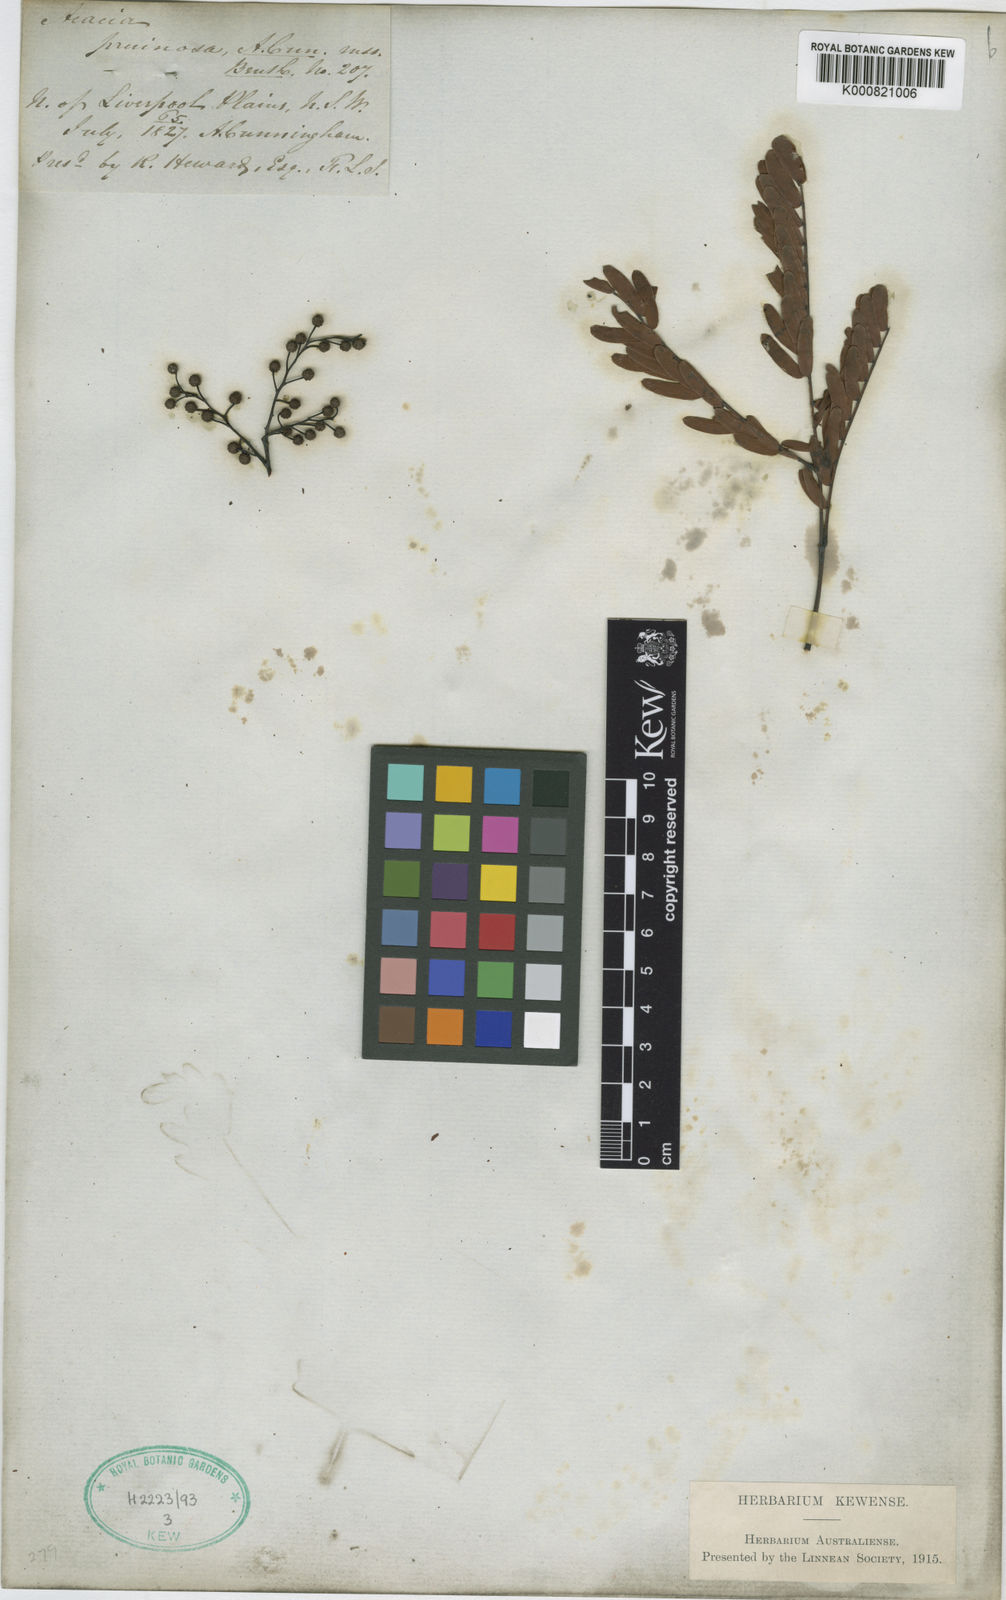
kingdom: Plantae
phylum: Tracheophyta
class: Magnoliopsida
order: Fabales
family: Fabaceae
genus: Acacia
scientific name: Acacia pruinosa
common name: Frosty wattle
